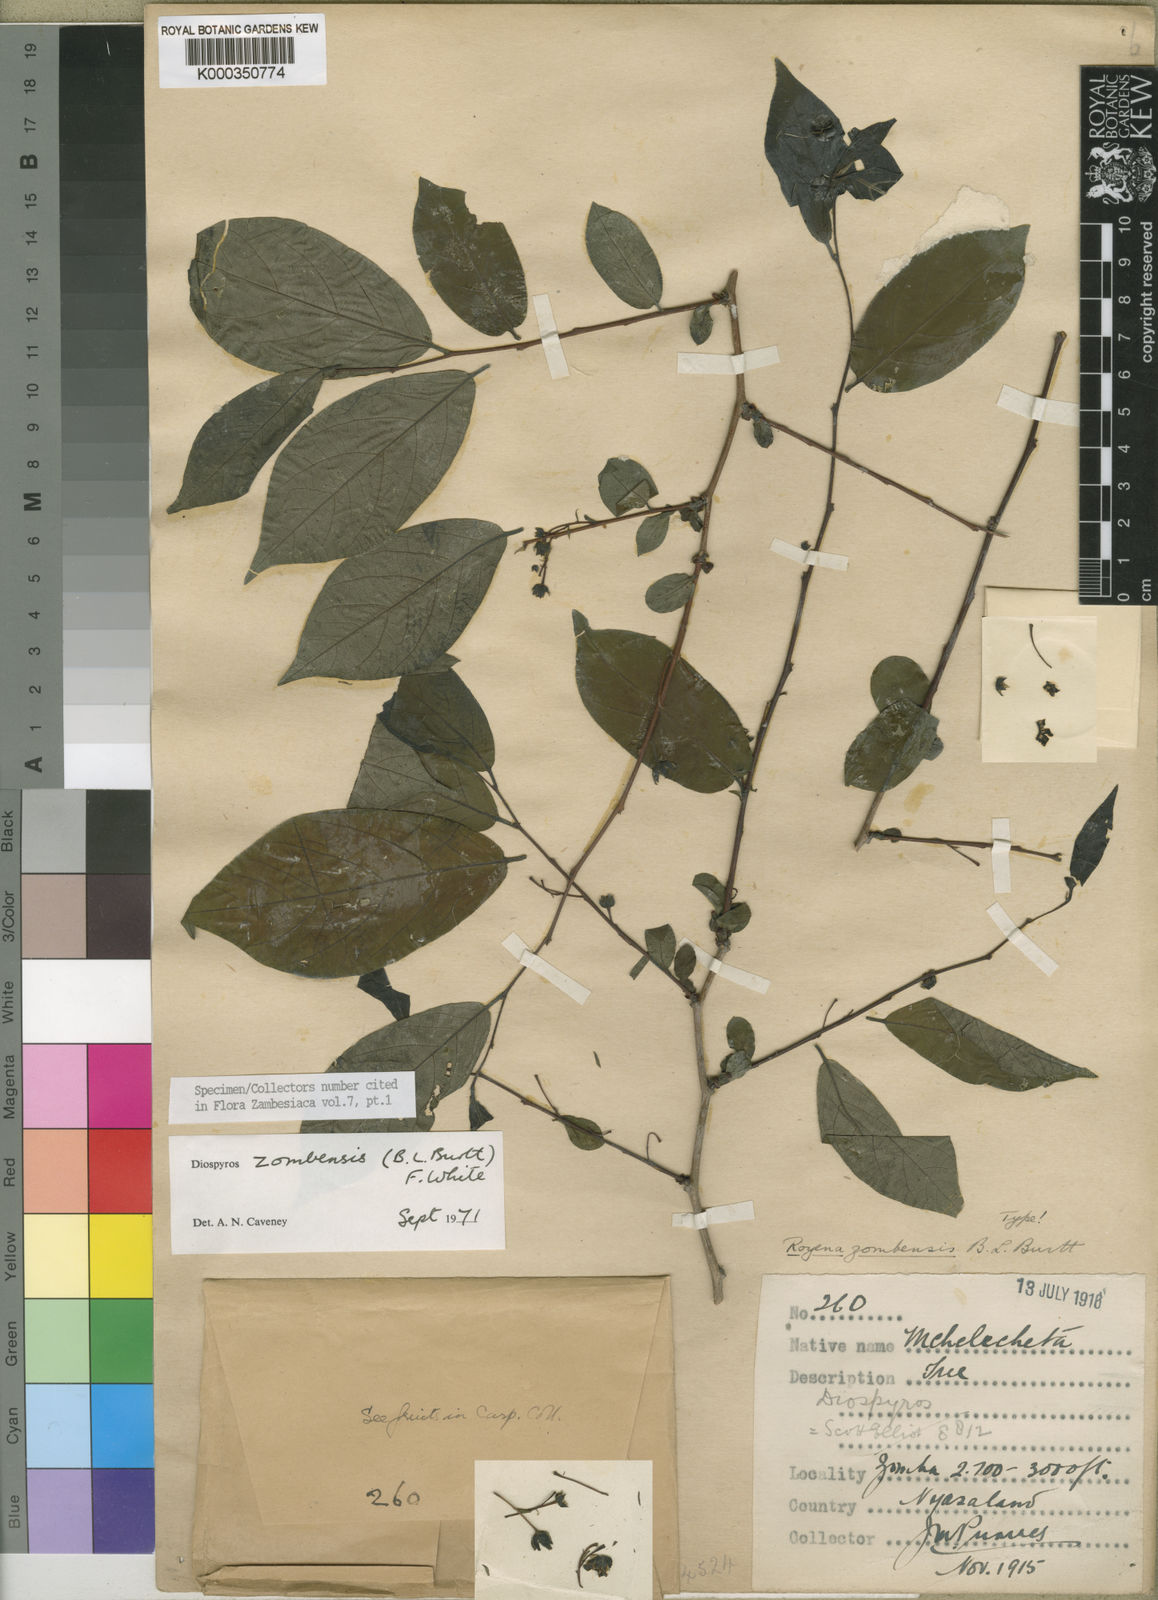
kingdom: Plantae
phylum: Tracheophyta
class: Magnoliopsida
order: Ericales
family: Ebenaceae
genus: Diospyros
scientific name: Diospyros zombensis
